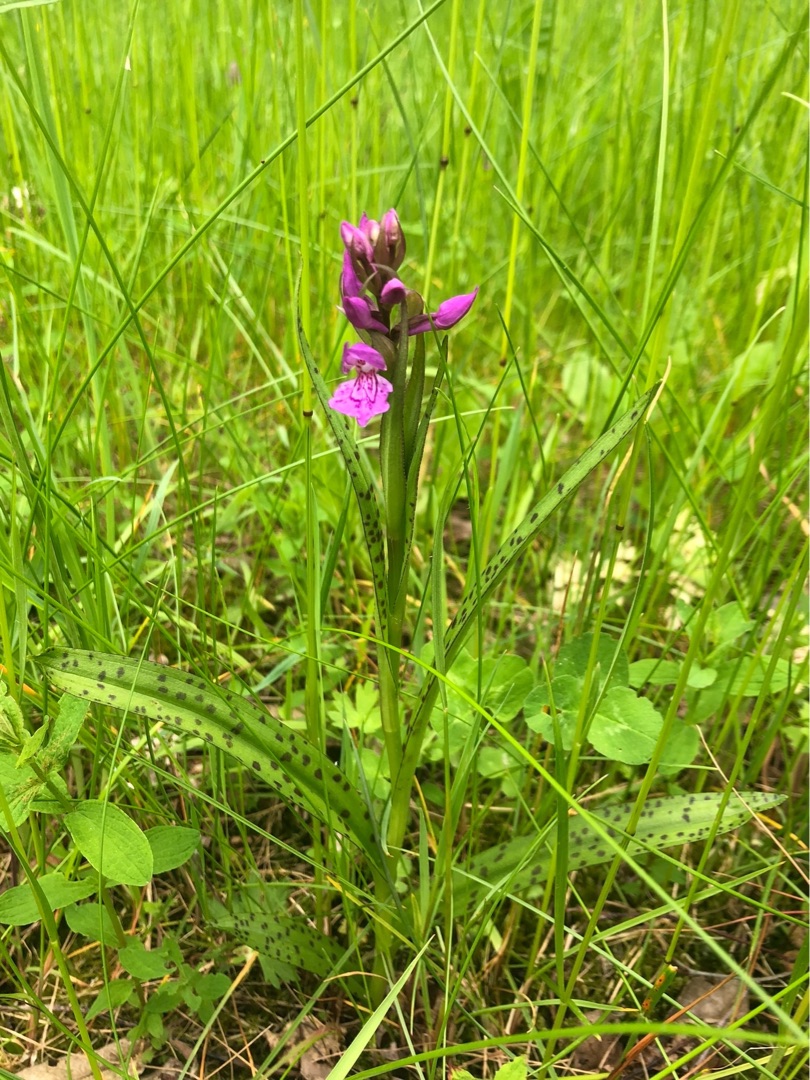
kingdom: Plantae
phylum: Tracheophyta
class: Liliopsida
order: Asparagales
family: Orchidaceae
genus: Dactylorhiza
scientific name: Dactylorhiza maculata
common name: Plettet gøgeurt
